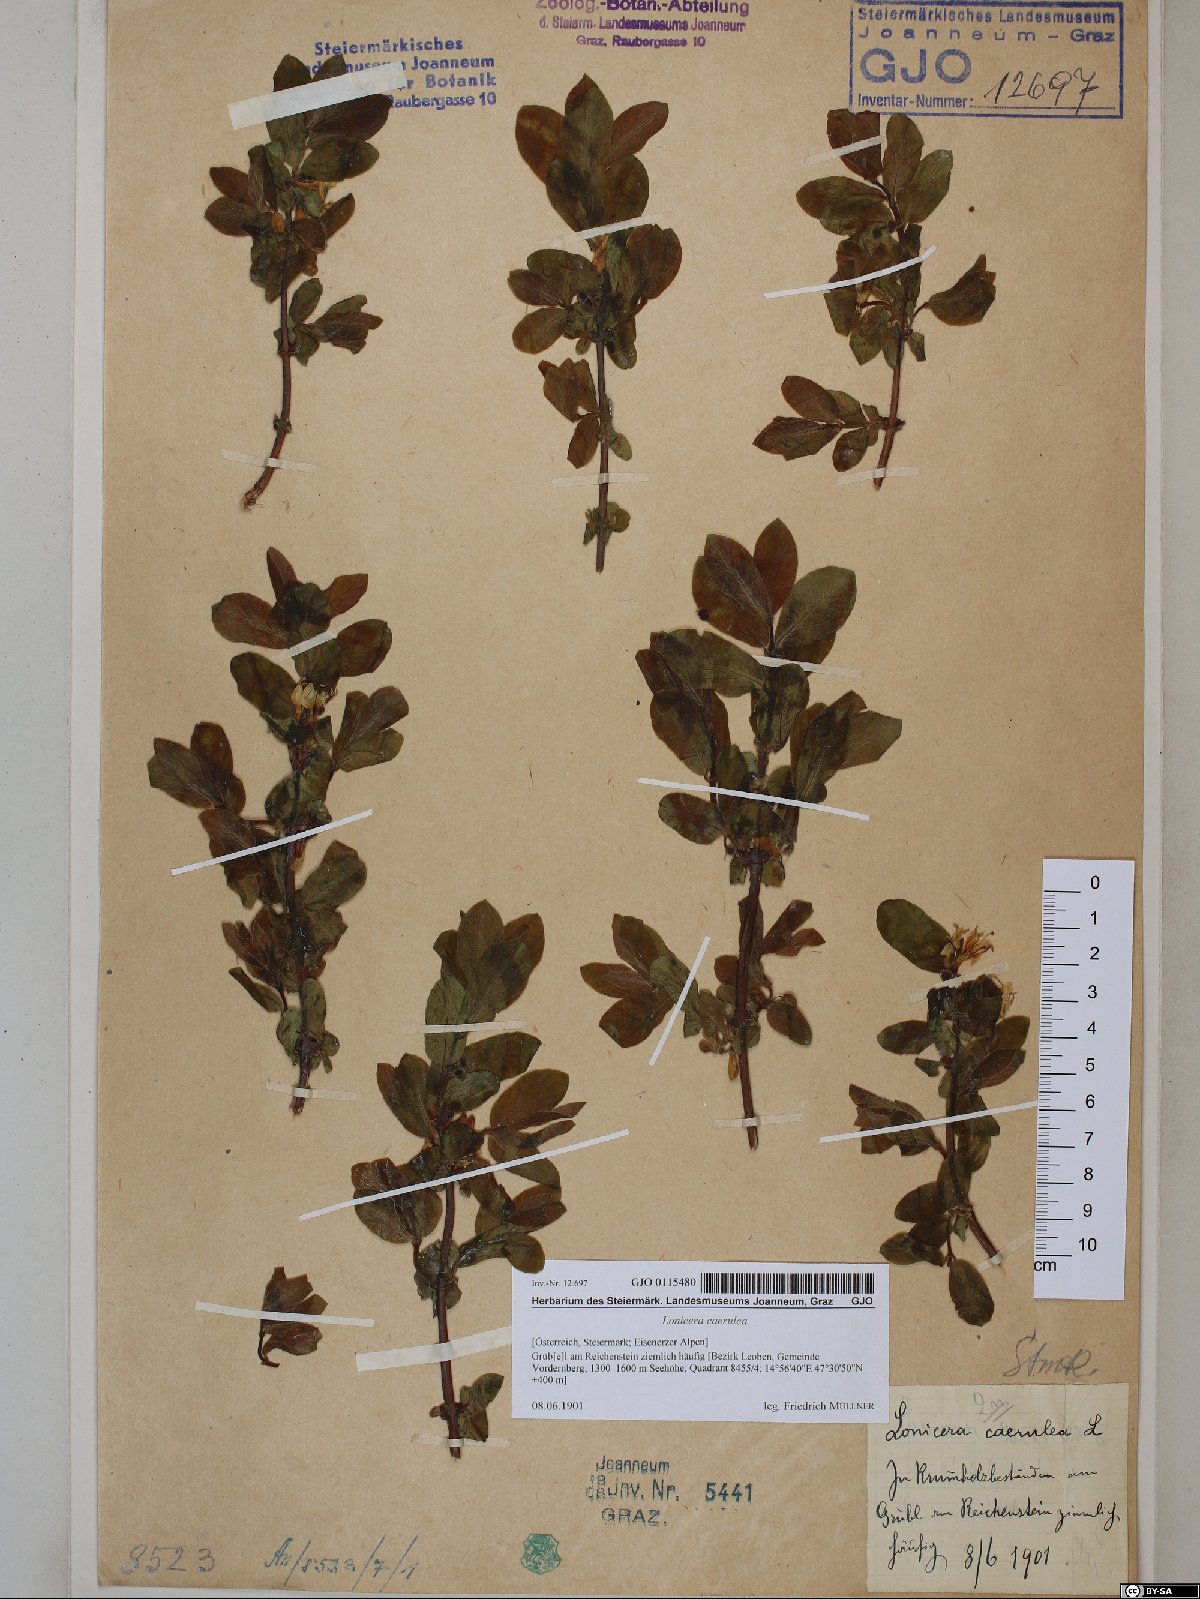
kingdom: Plantae
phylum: Tracheophyta
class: Magnoliopsida
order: Dipsacales
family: Caprifoliaceae
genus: Lonicera
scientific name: Lonicera caerulea
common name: Blue honeysuckle
